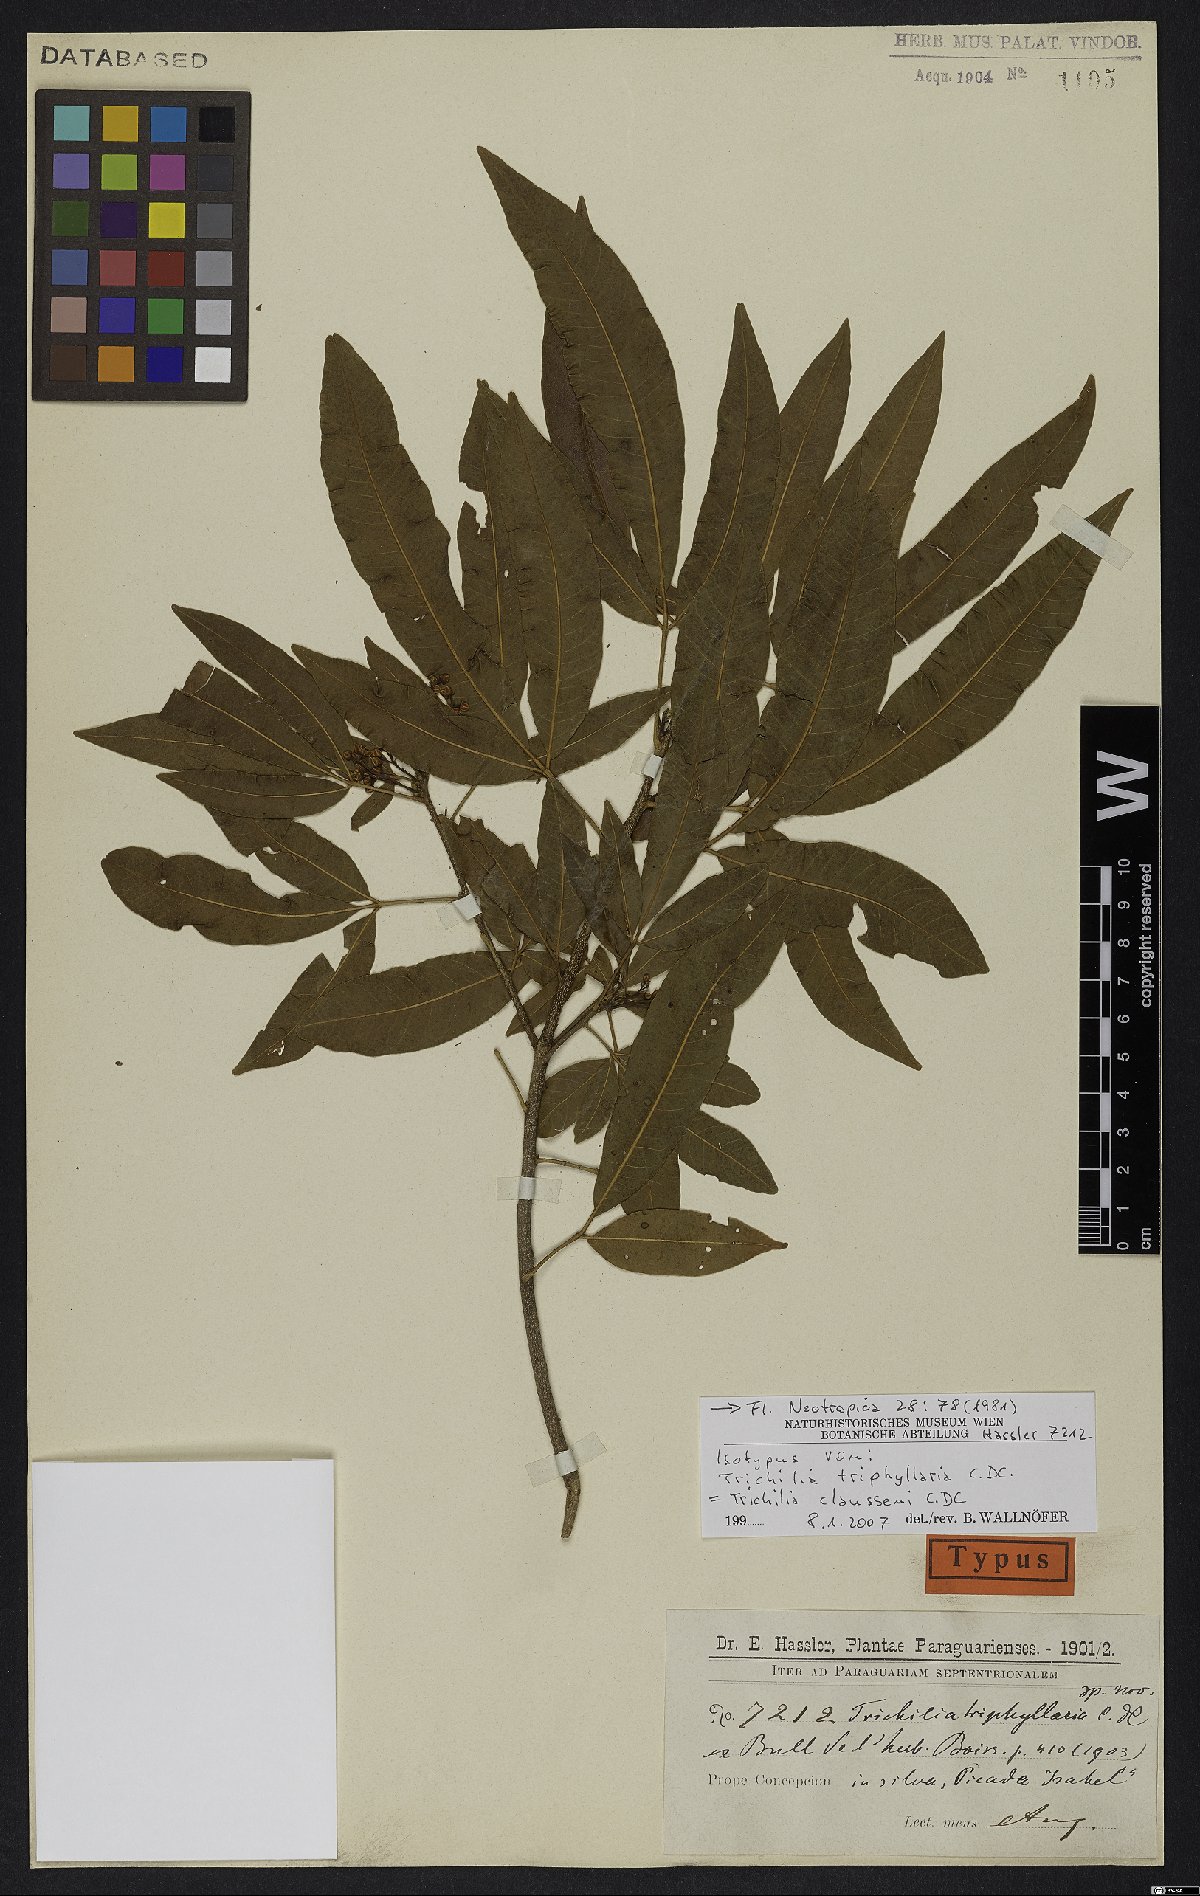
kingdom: Plantae
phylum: Tracheophyta
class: Magnoliopsida
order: Sapindales
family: Meliaceae
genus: Trichilia
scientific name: Trichilia claussenii
